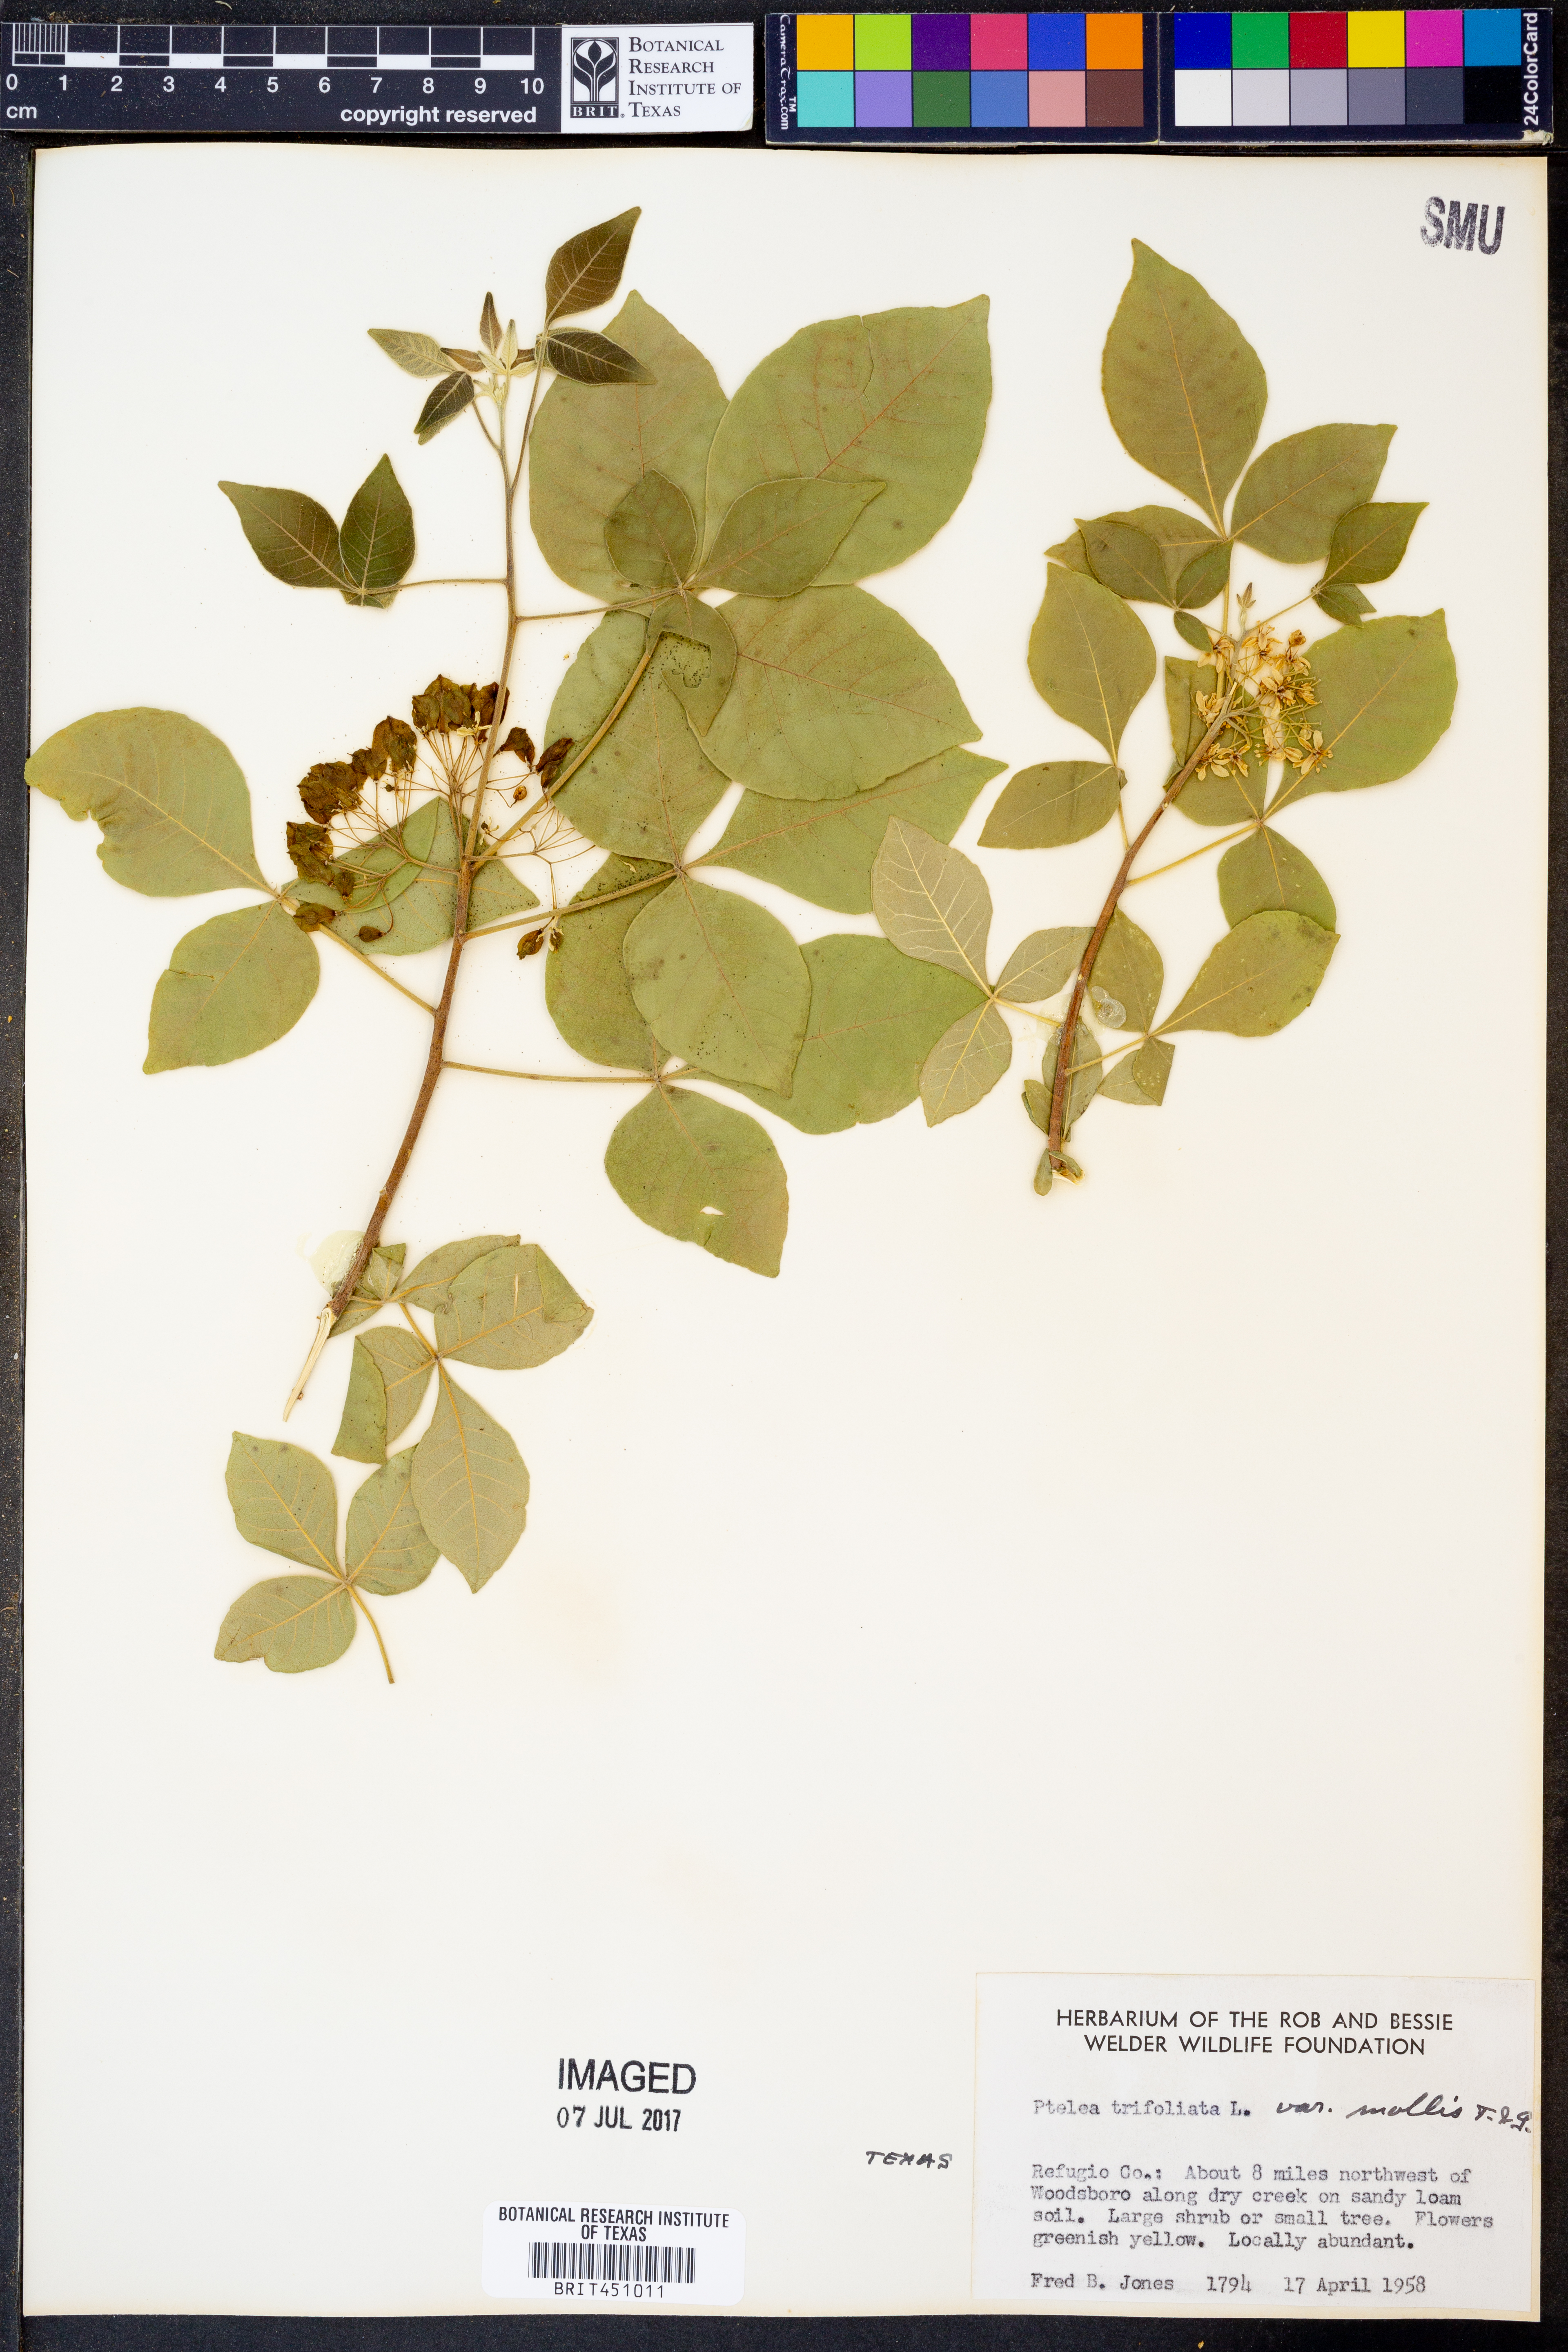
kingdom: Plantae
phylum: Tracheophyta
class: Magnoliopsida
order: Sapindales
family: Rutaceae
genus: Ptelea
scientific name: Ptelea trifoliata
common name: Common hop-tree
